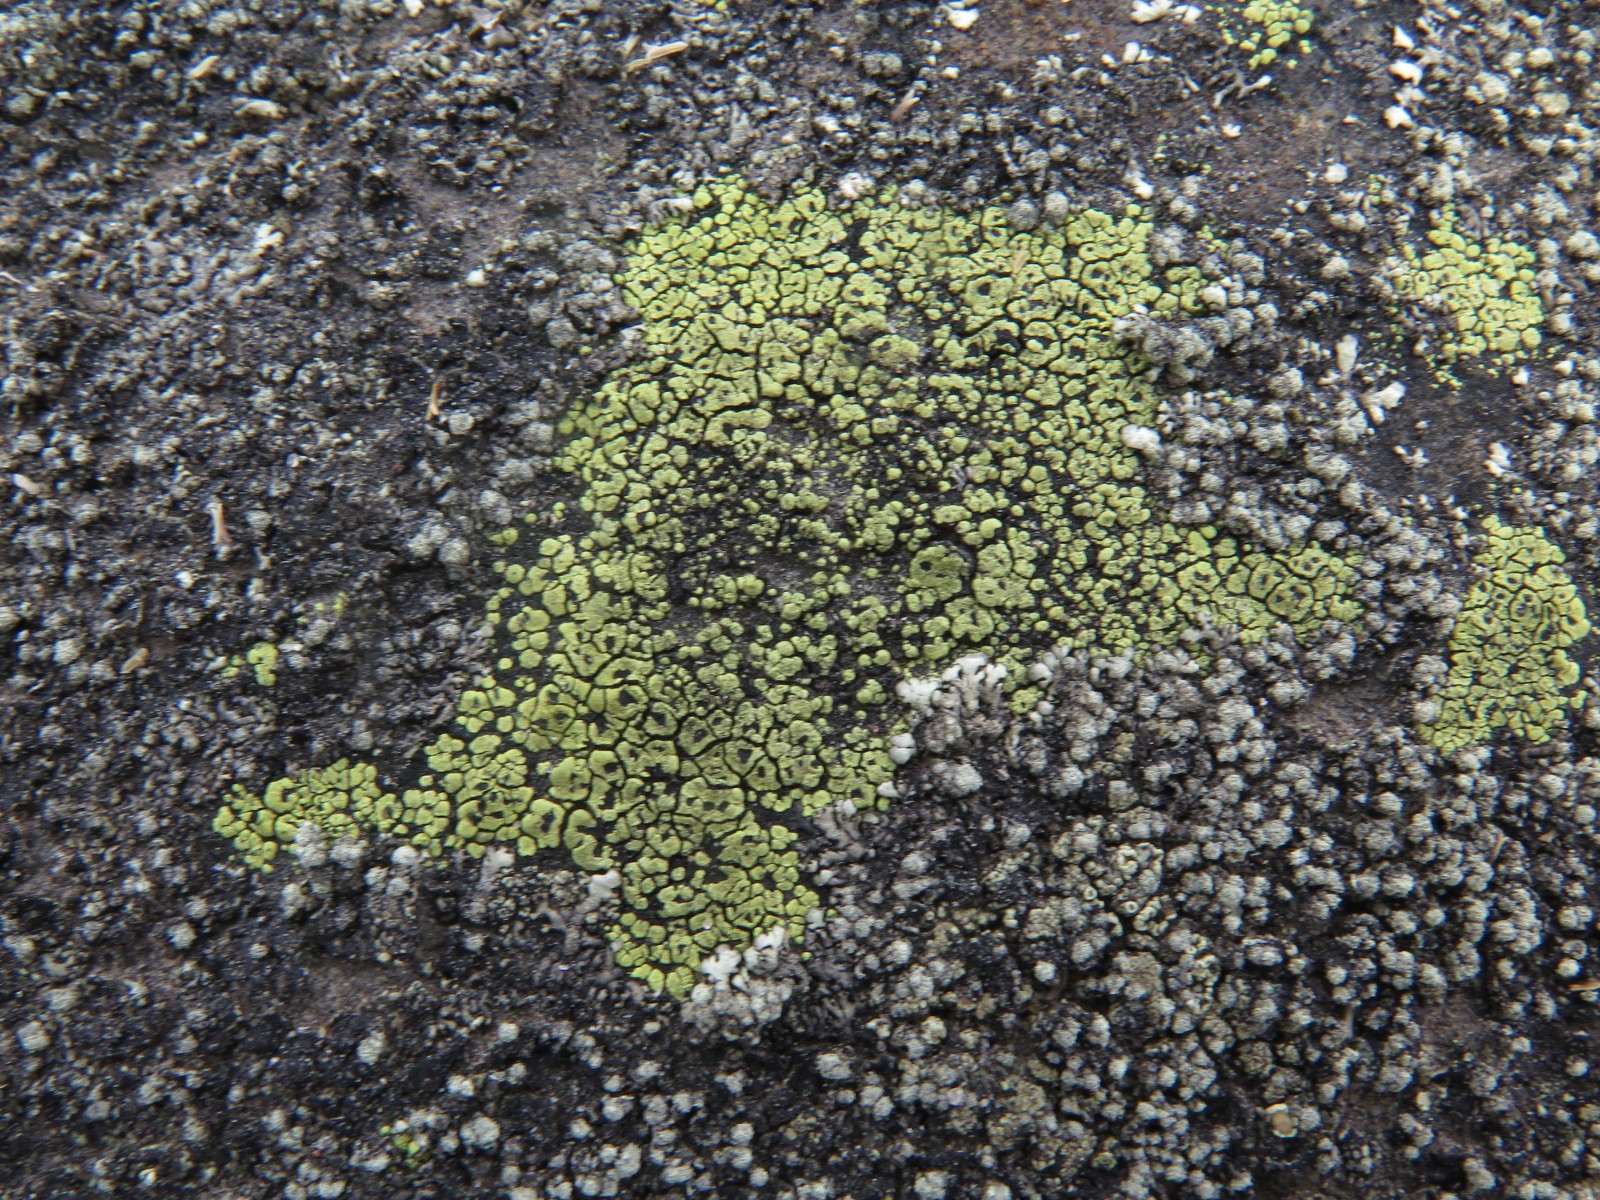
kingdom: Fungi
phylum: Ascomycota
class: Lecanoromycetes
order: Rhizocarpales
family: Rhizocarpaceae
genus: Rhizocarpon
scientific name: Rhizocarpon lecanorinum
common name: krave-landkortlav
